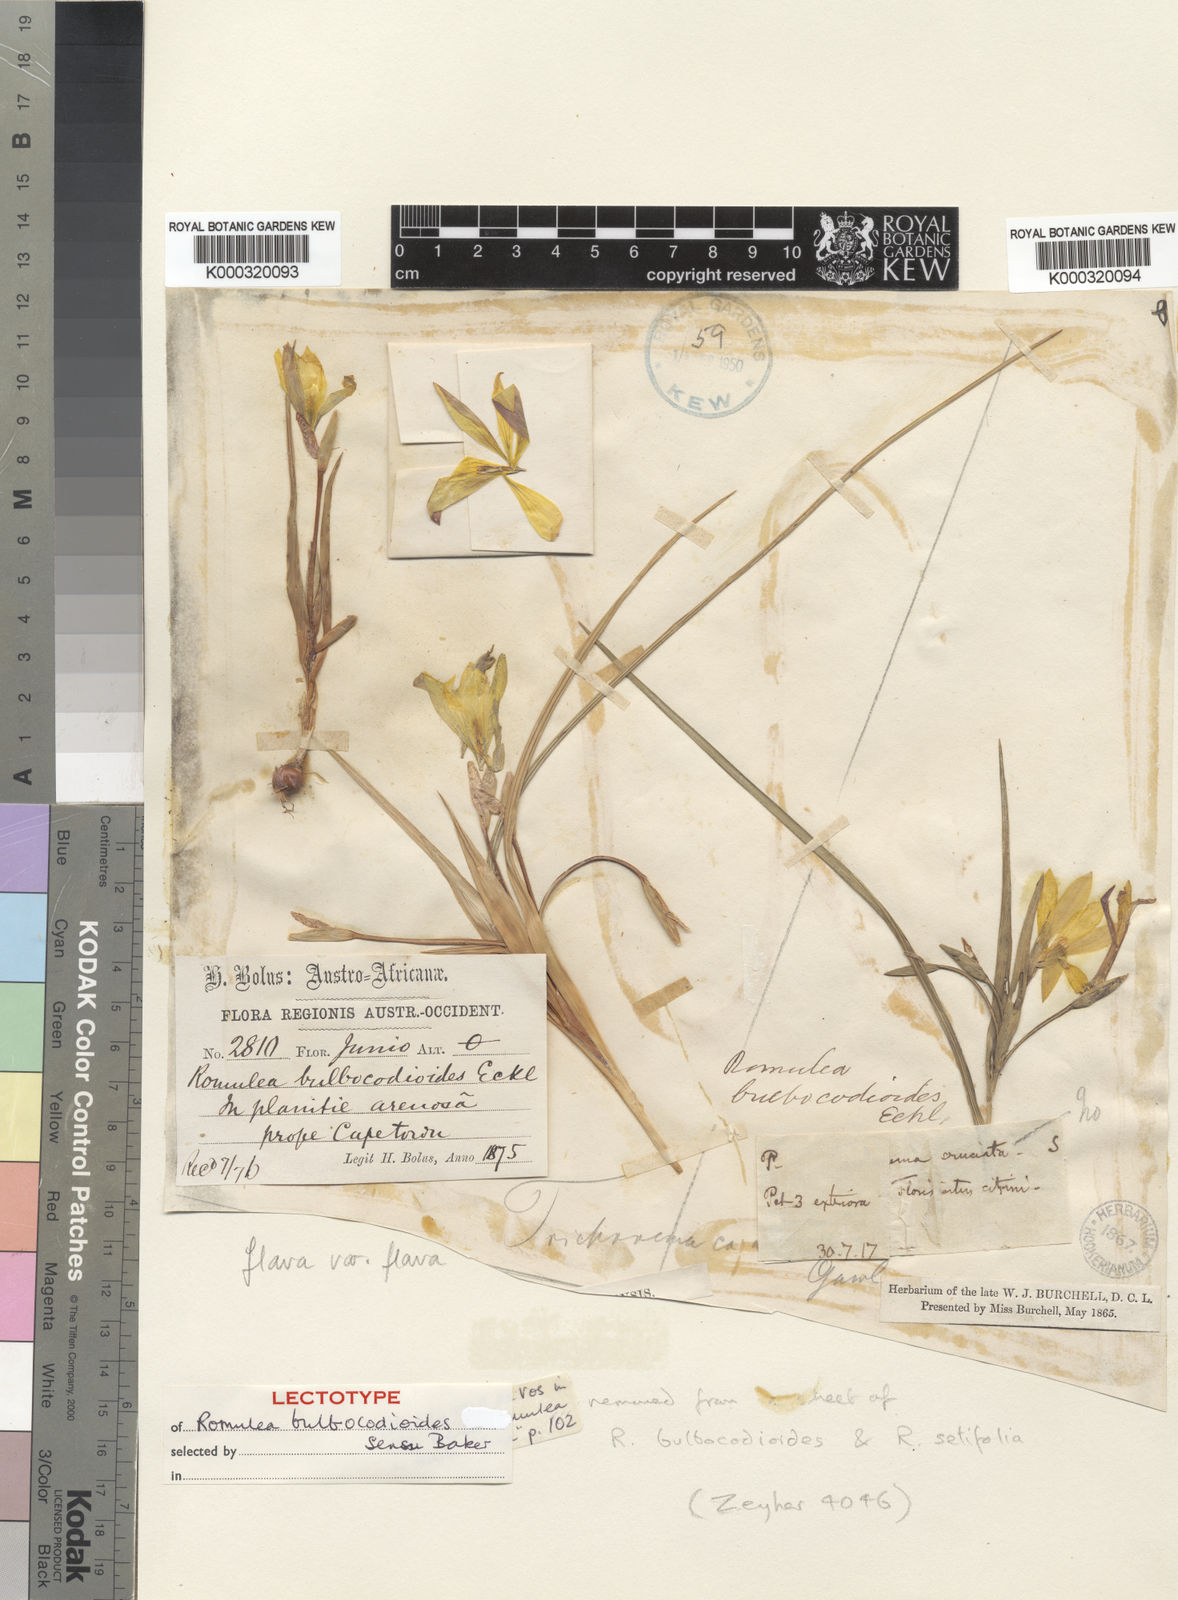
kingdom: Plantae
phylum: Tracheophyta
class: Liliopsida
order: Asparagales
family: Iridaceae
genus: Romulea
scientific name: Romulea flava
